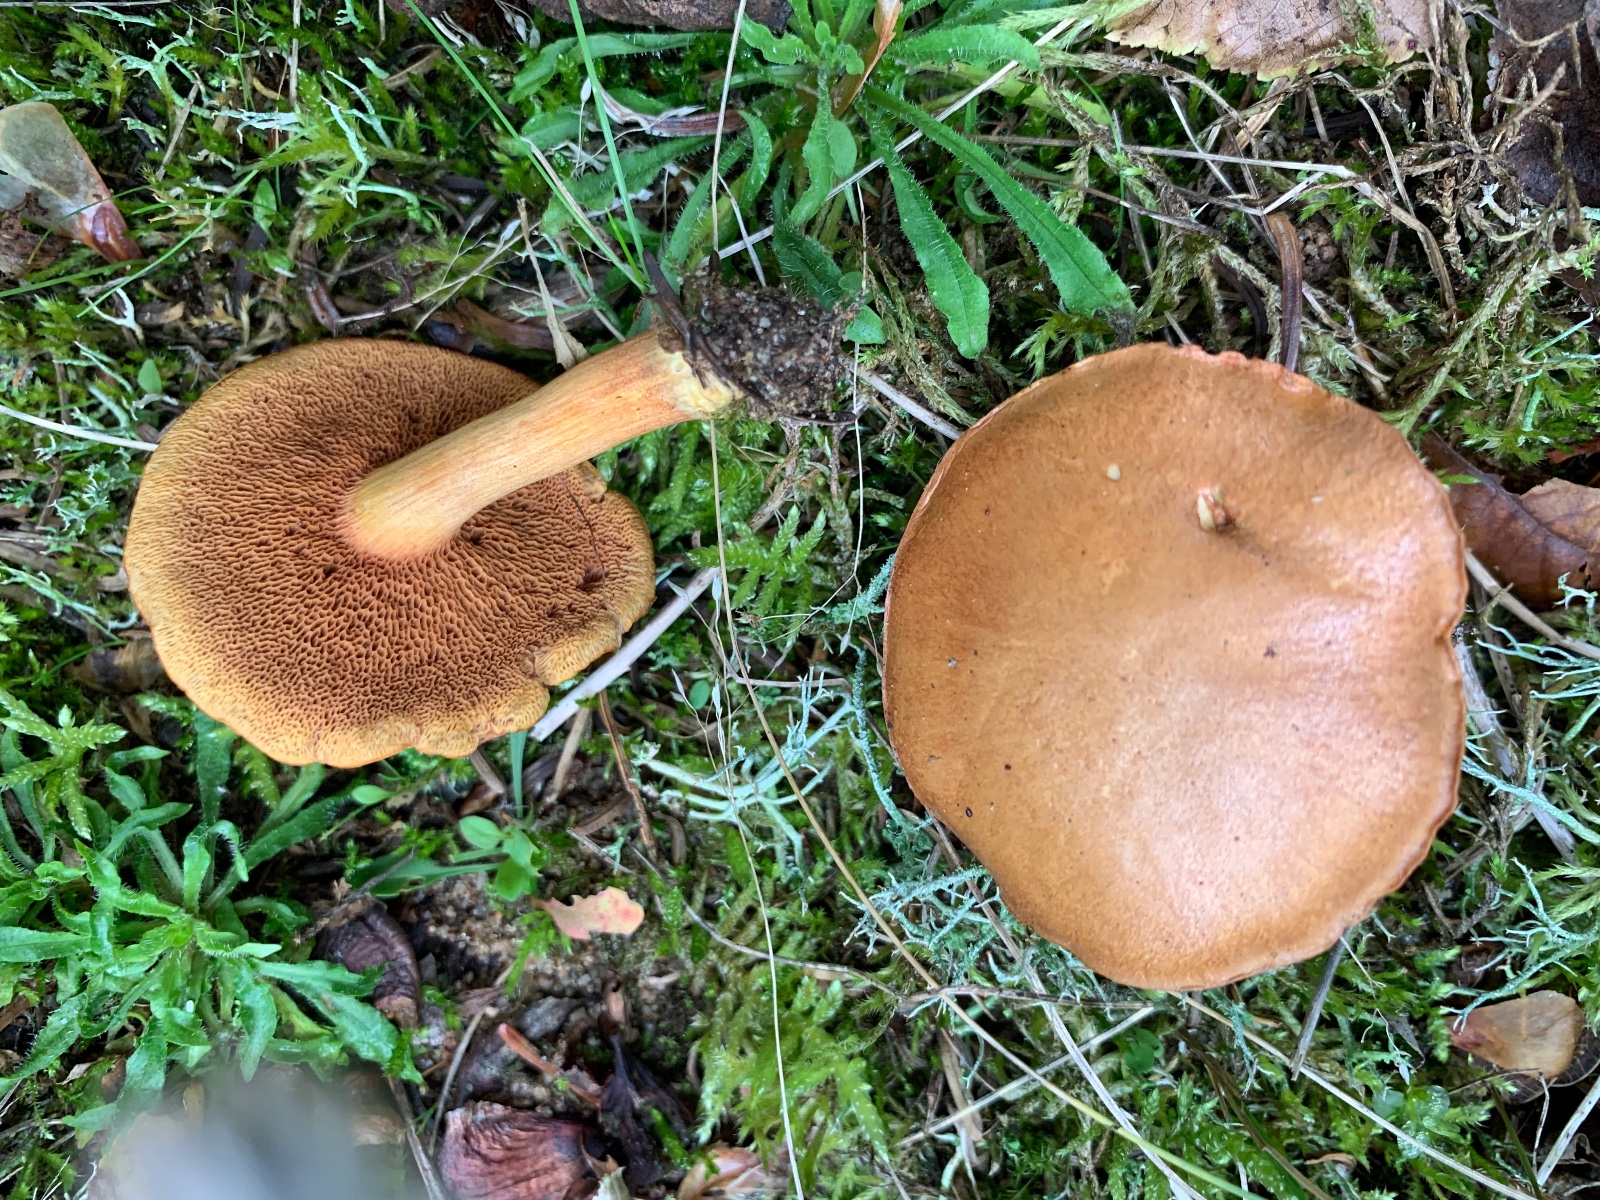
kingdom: Fungi
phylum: Basidiomycota
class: Agaricomycetes
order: Boletales
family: Boletaceae
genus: Chalciporus
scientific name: Chalciporus piperatus
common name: peberrørhat
